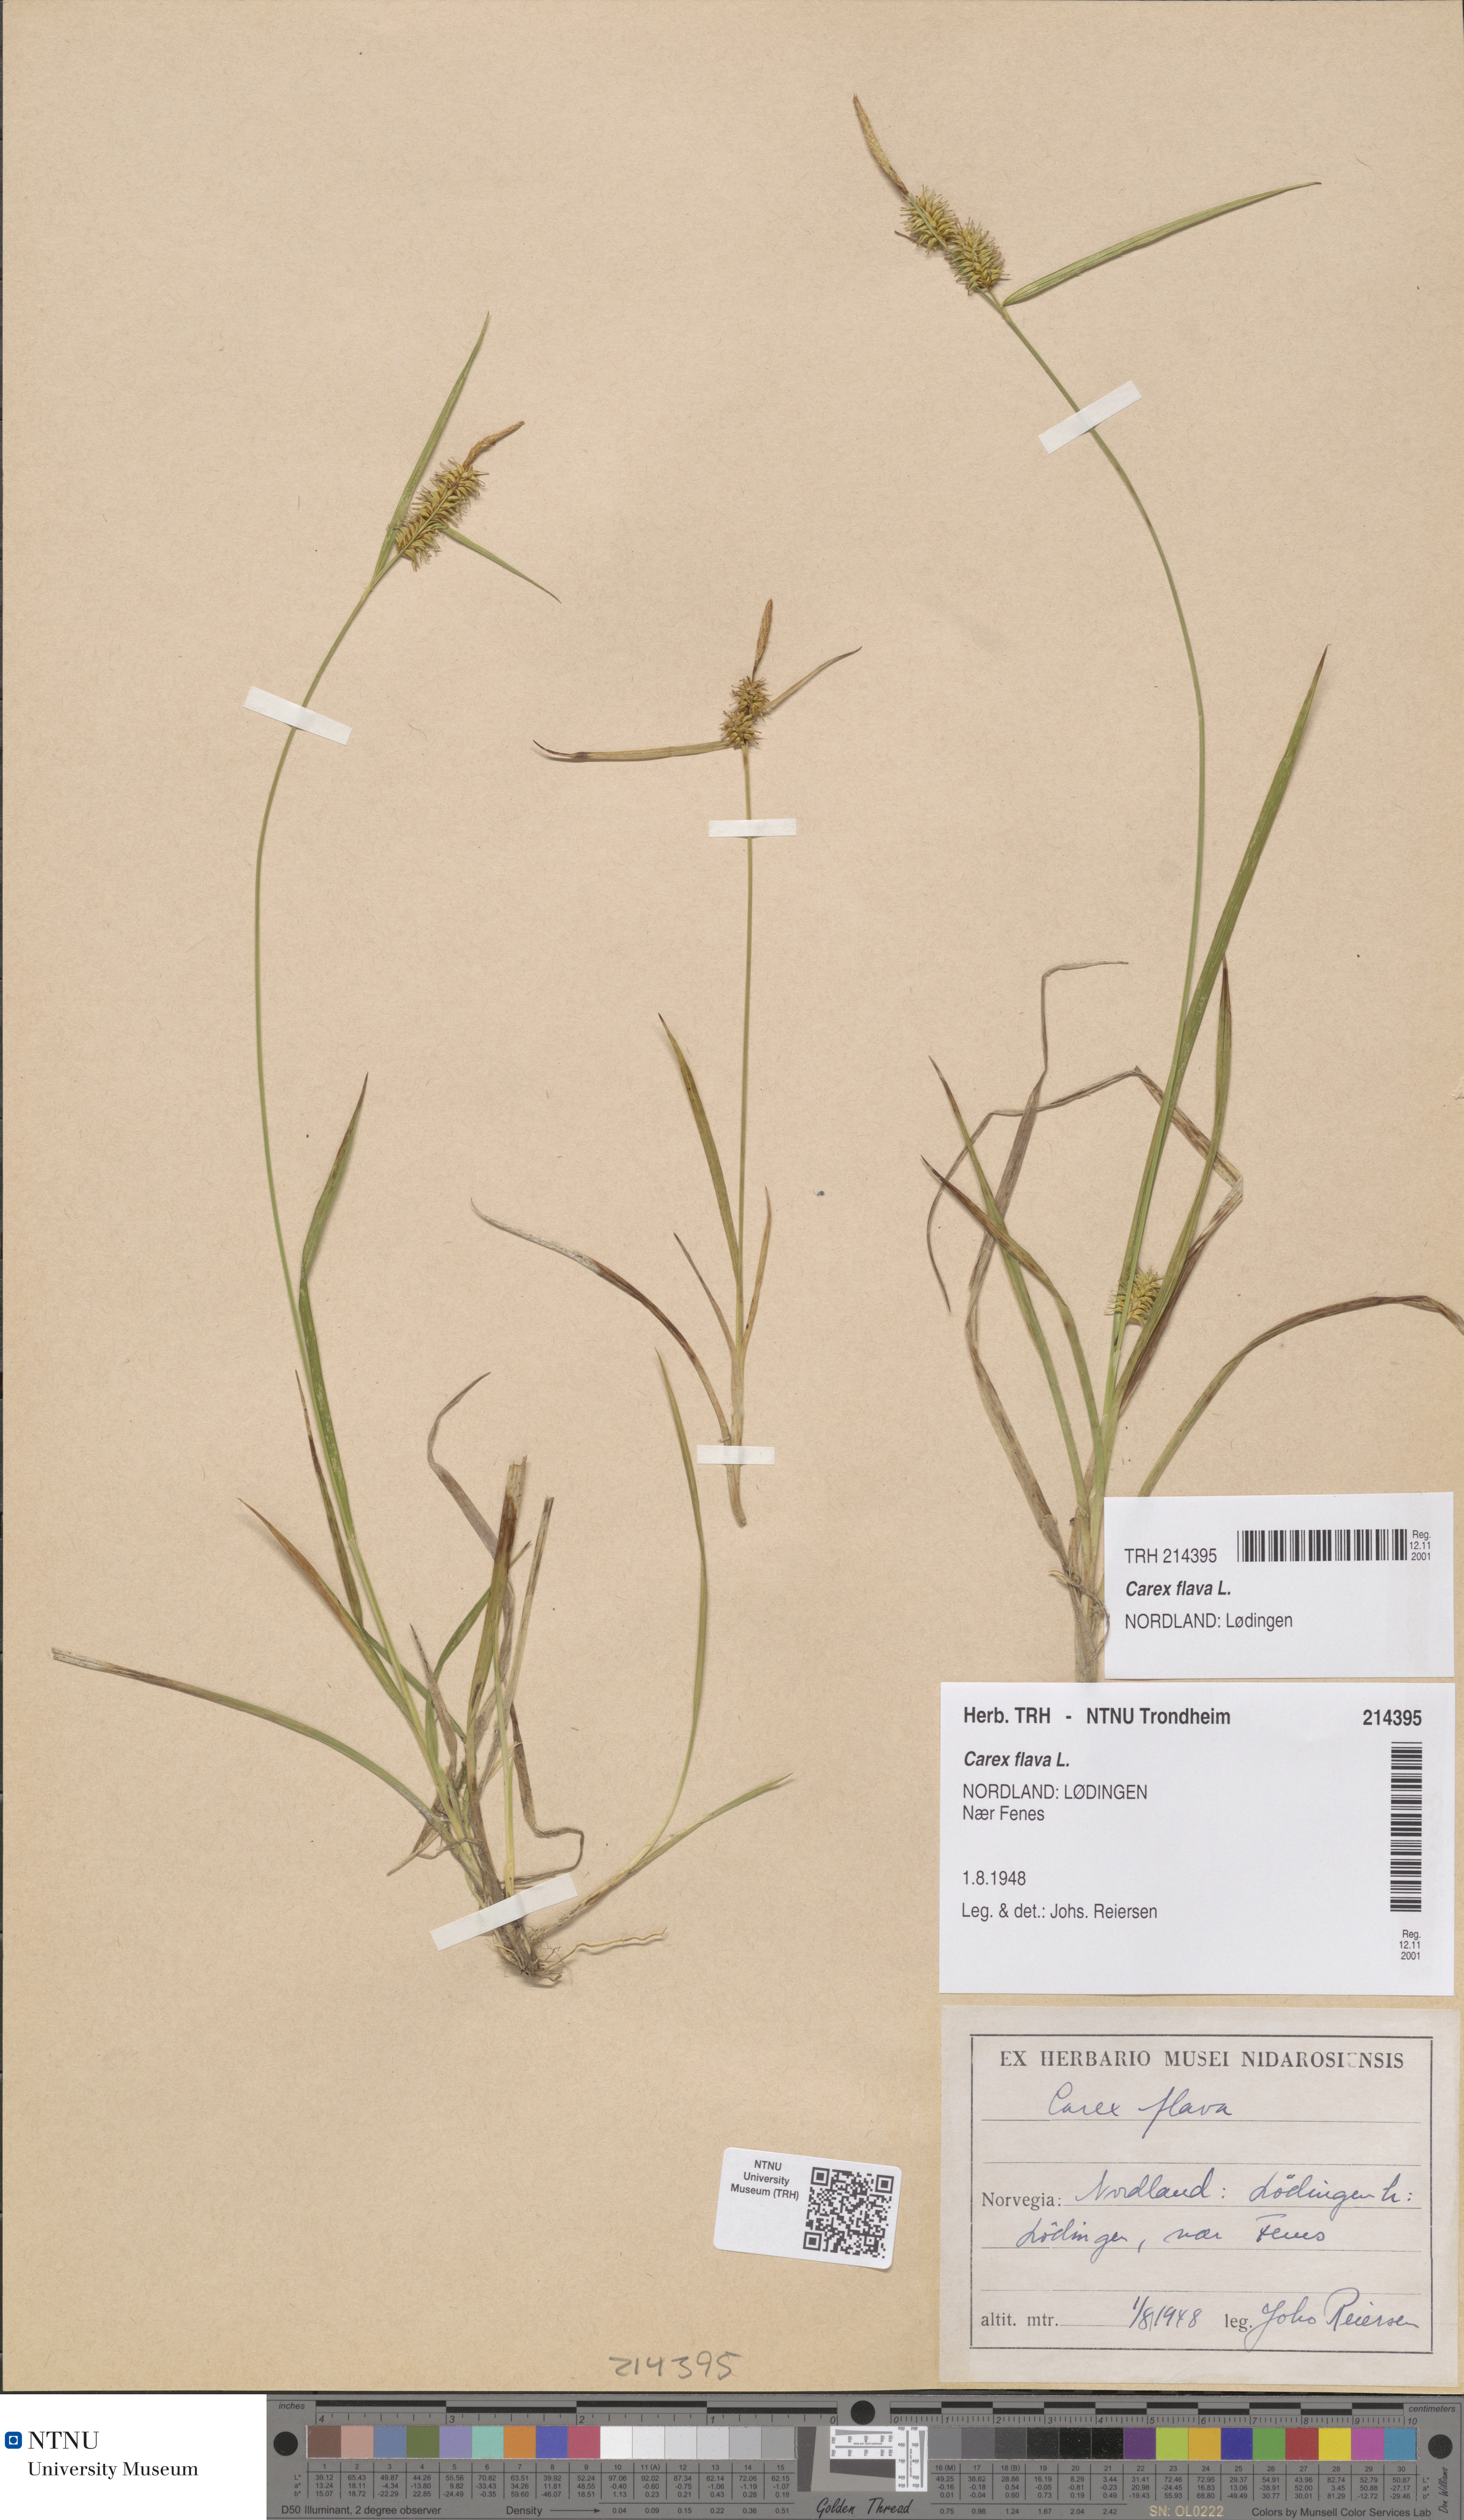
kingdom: Plantae
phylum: Tracheophyta
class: Liliopsida
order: Poales
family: Cyperaceae
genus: Carex
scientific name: Carex flava
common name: Large yellow-sedge
